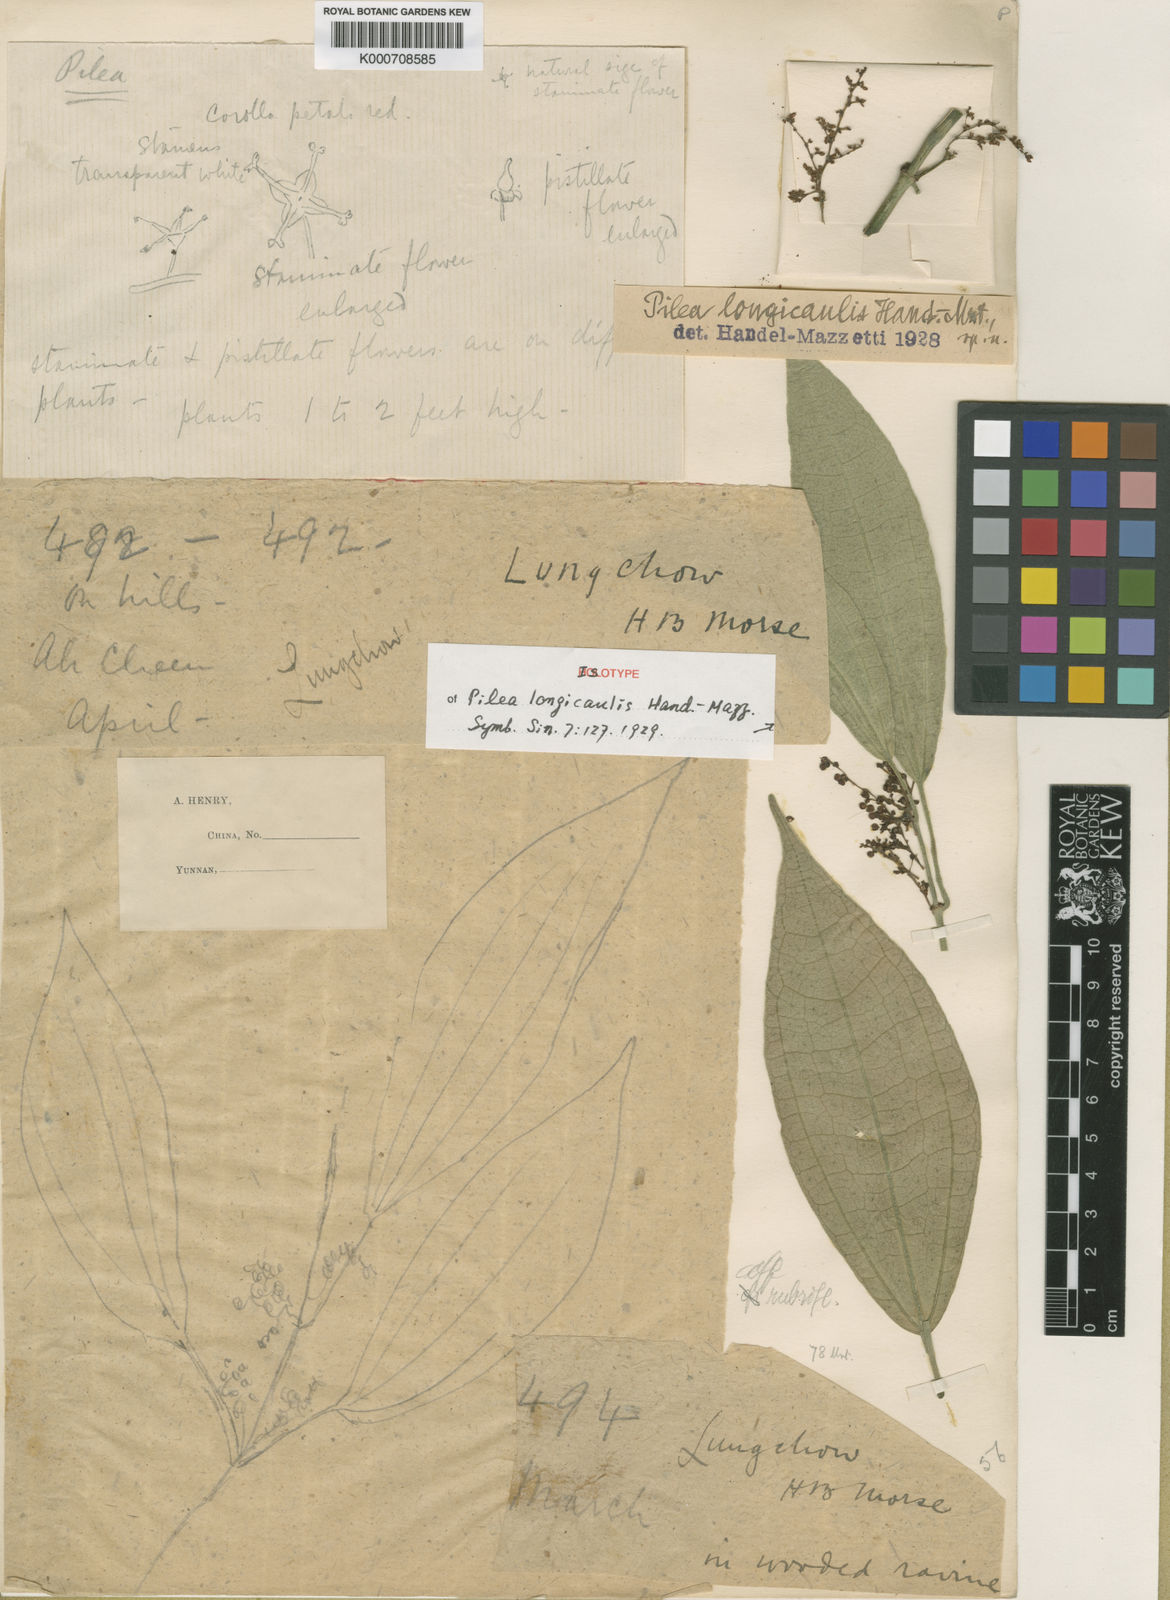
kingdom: Plantae
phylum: Tracheophyta
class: Magnoliopsida
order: Rosales
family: Urticaceae
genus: Pilea
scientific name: Pilea longicaulis
